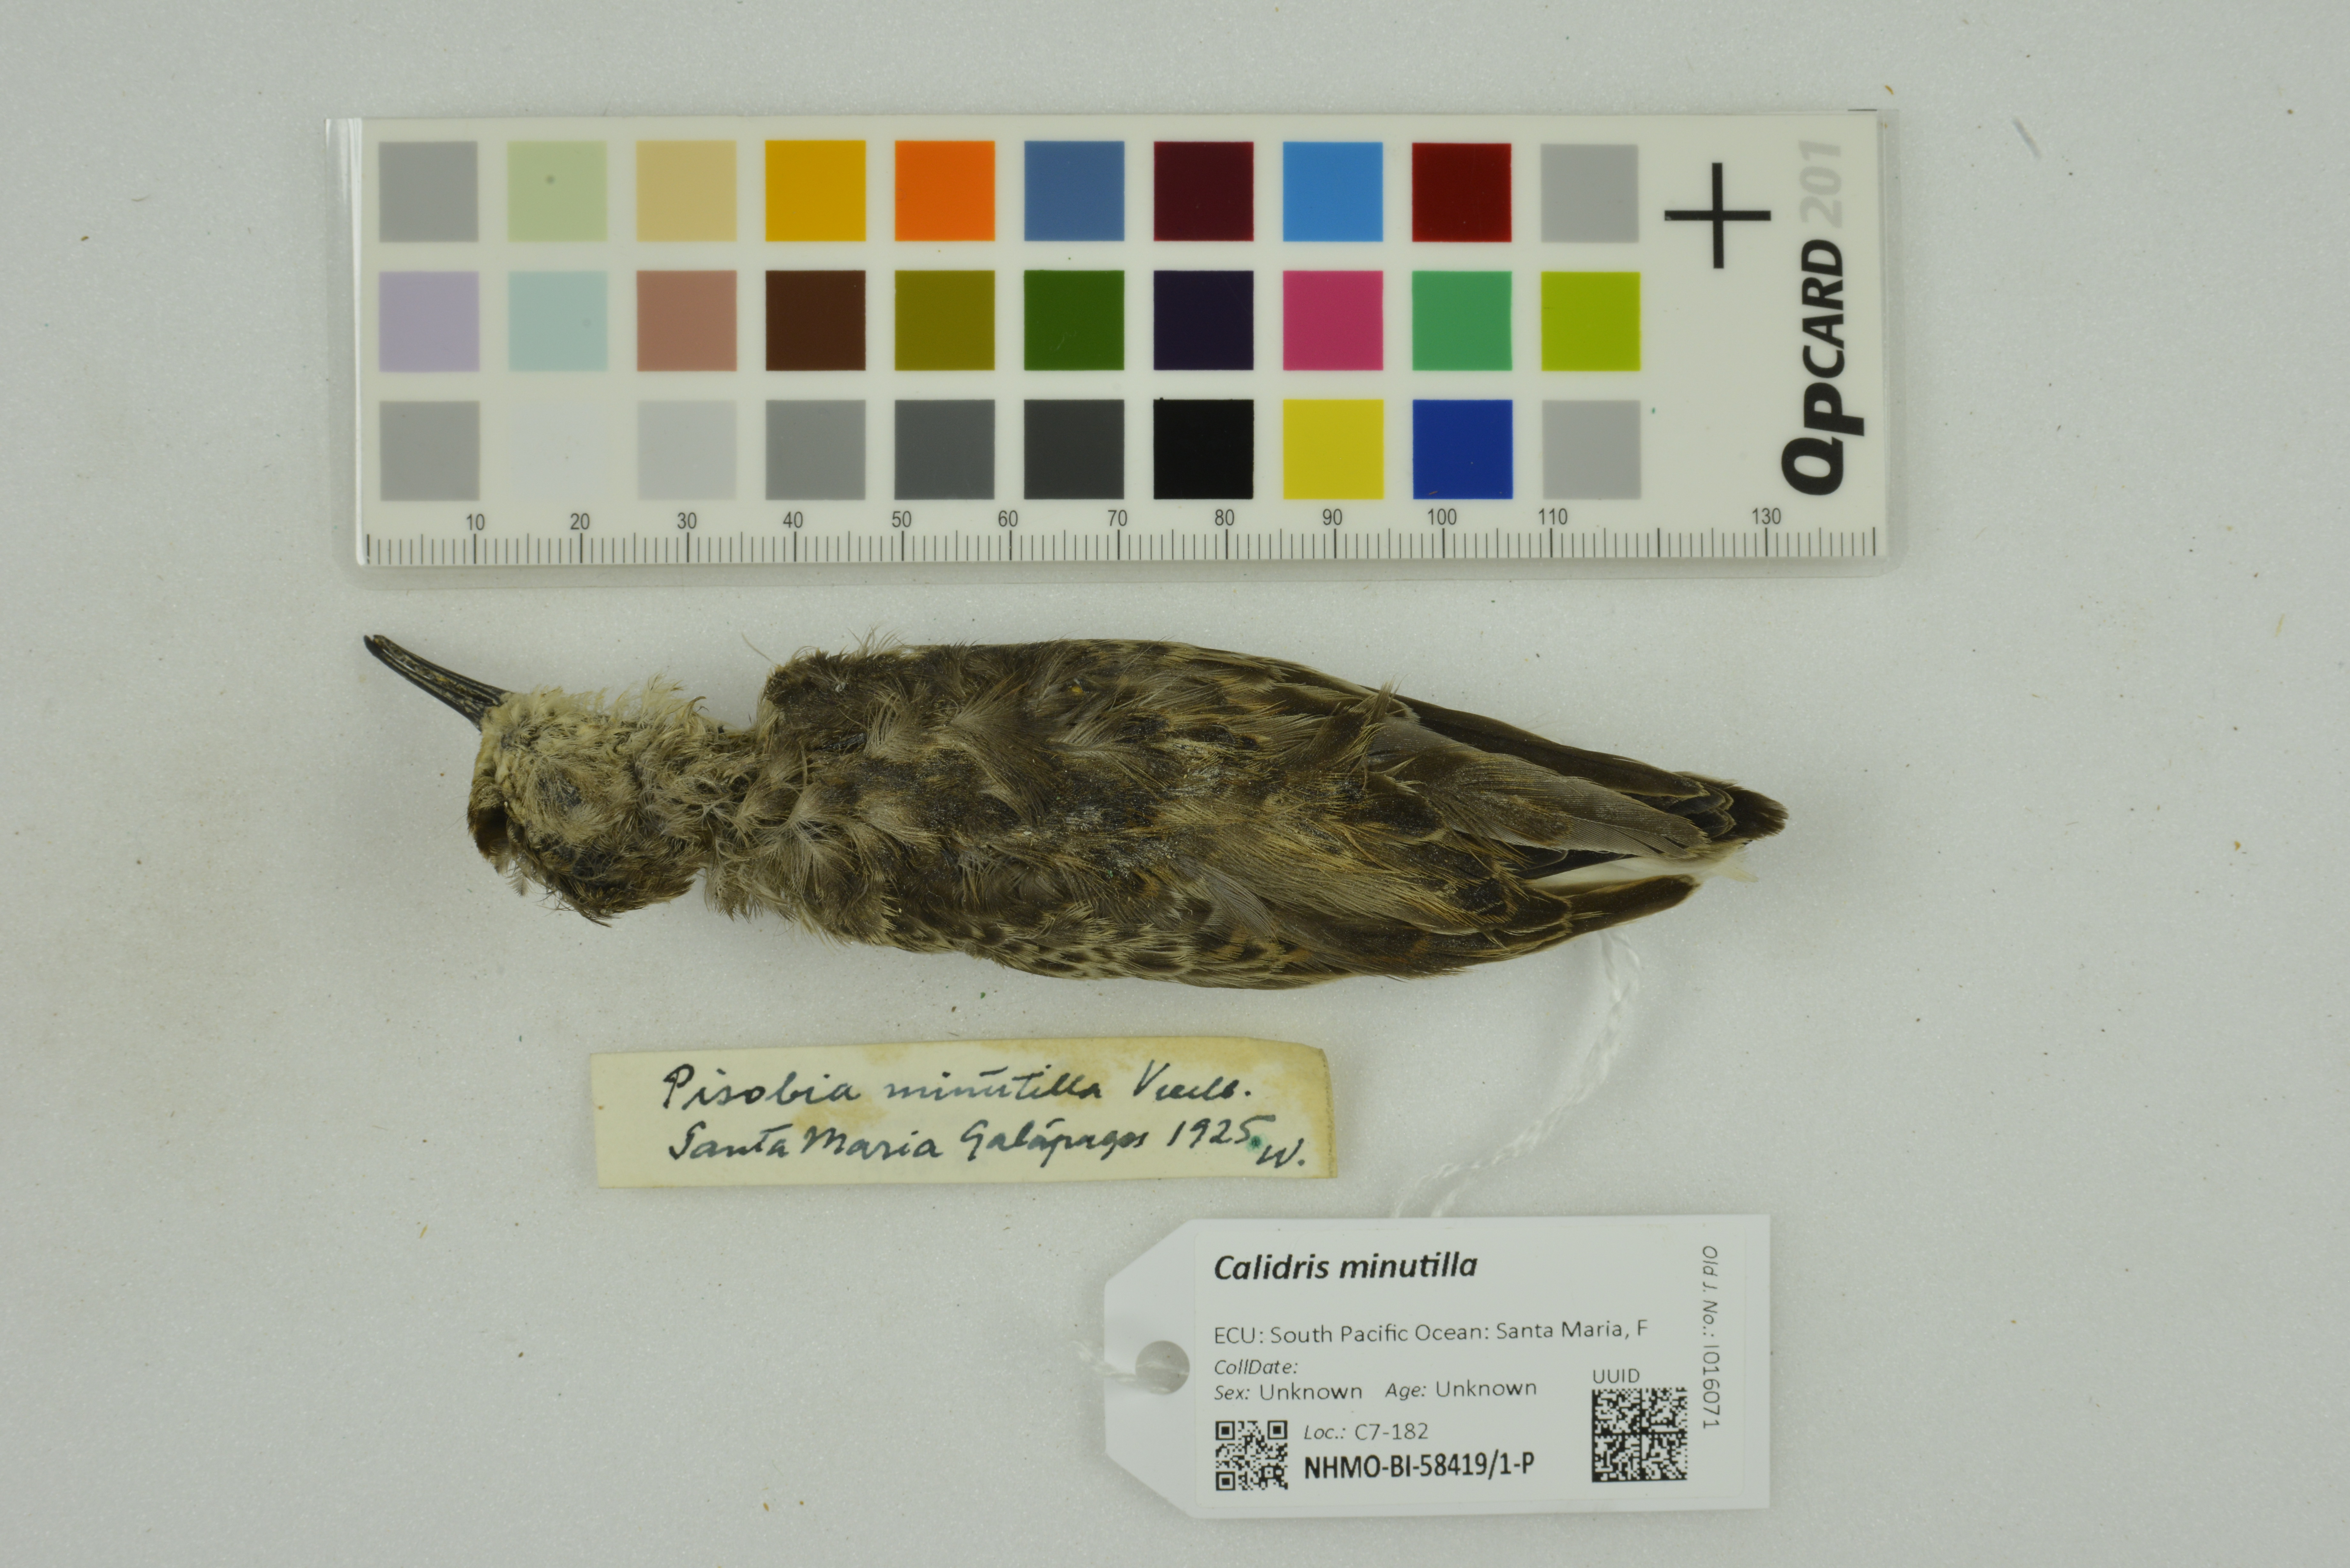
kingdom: Animalia
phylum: Chordata
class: Aves
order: Charadriiformes
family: Scolopacidae
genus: Calidris
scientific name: Calidris minutilla
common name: Least sandpiper
